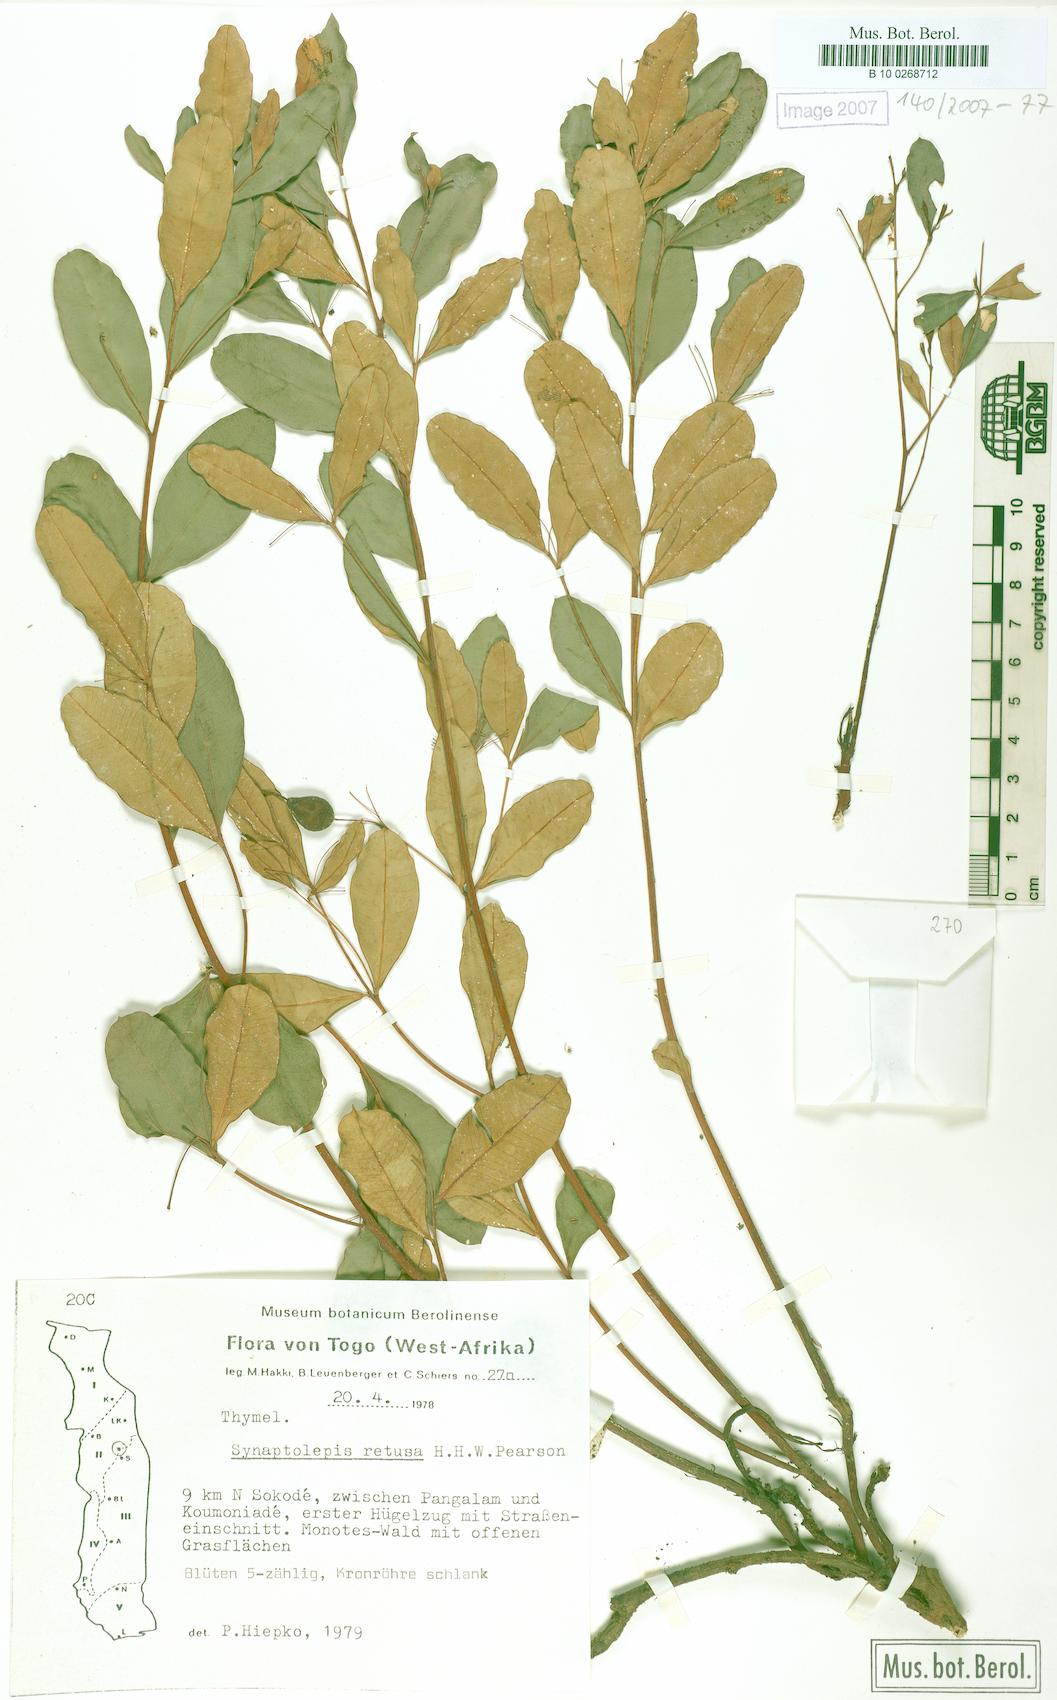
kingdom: Plantae
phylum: Tracheophyta
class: Magnoliopsida
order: Malvales
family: Thymelaeaceae
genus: Synaptolepis
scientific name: Synaptolepis retusa
